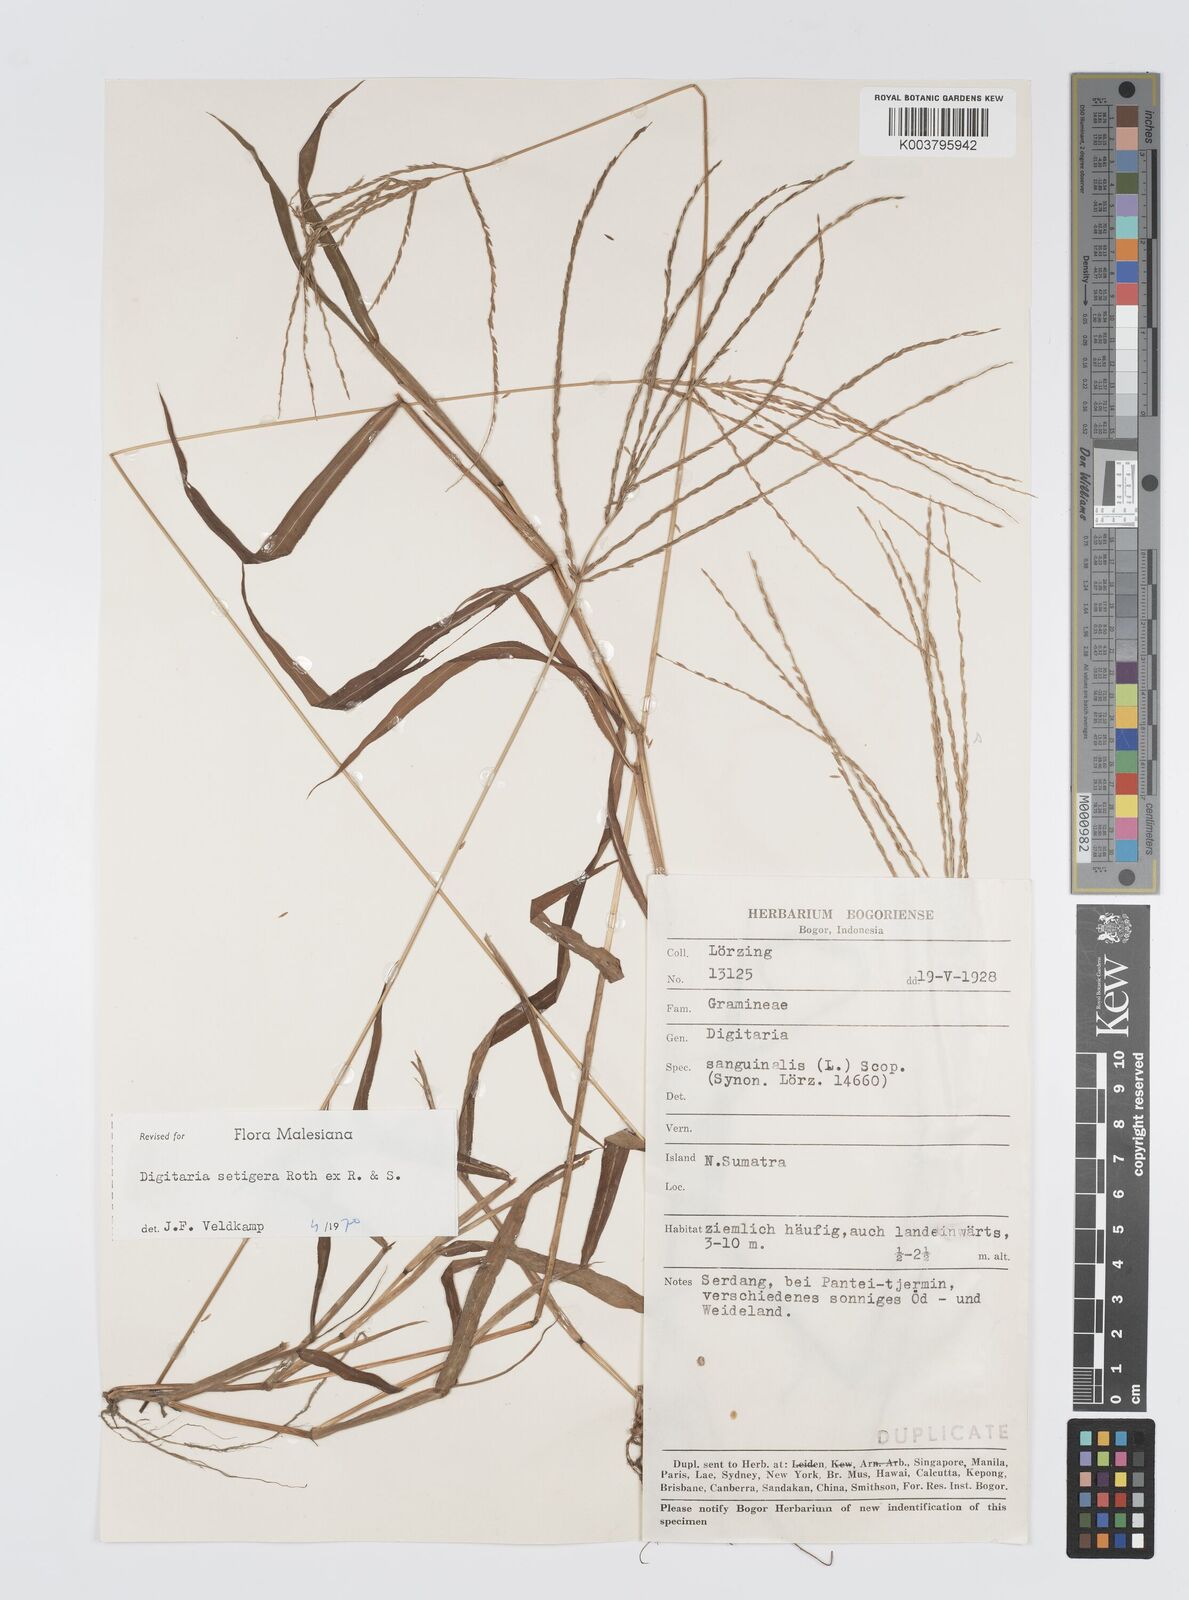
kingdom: Plantae
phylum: Tracheophyta
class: Liliopsida
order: Poales
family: Poaceae
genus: Digitaria
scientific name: Digitaria setigera
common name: East indian crabgrass
